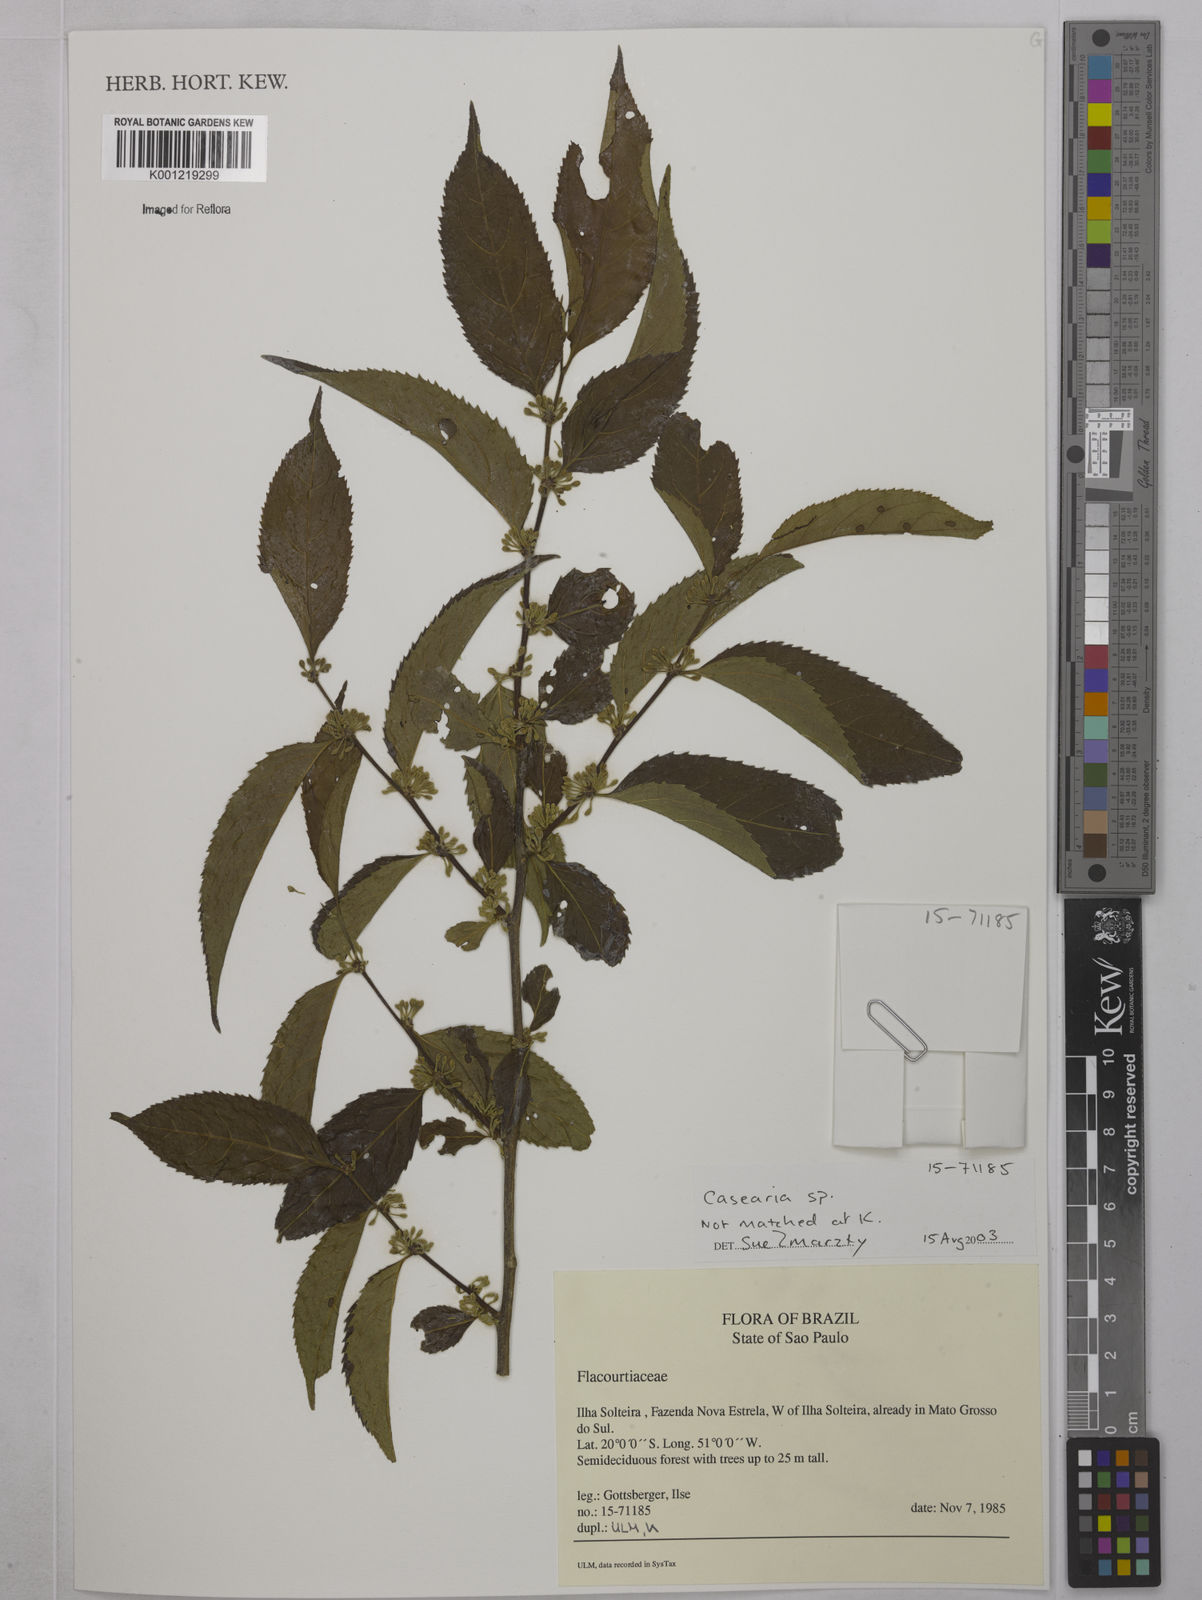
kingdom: Plantae
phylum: Tracheophyta
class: Magnoliopsida
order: Malpighiales
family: Salicaceae
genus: Casearia
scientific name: Casearia
